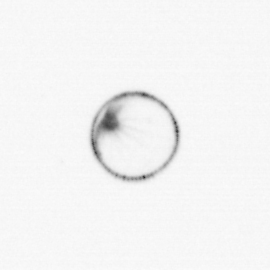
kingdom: Chromista
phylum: Myzozoa
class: Dinophyceae
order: Noctilucales
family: Noctilucaceae
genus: Noctiluca
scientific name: Noctiluca scintillans
